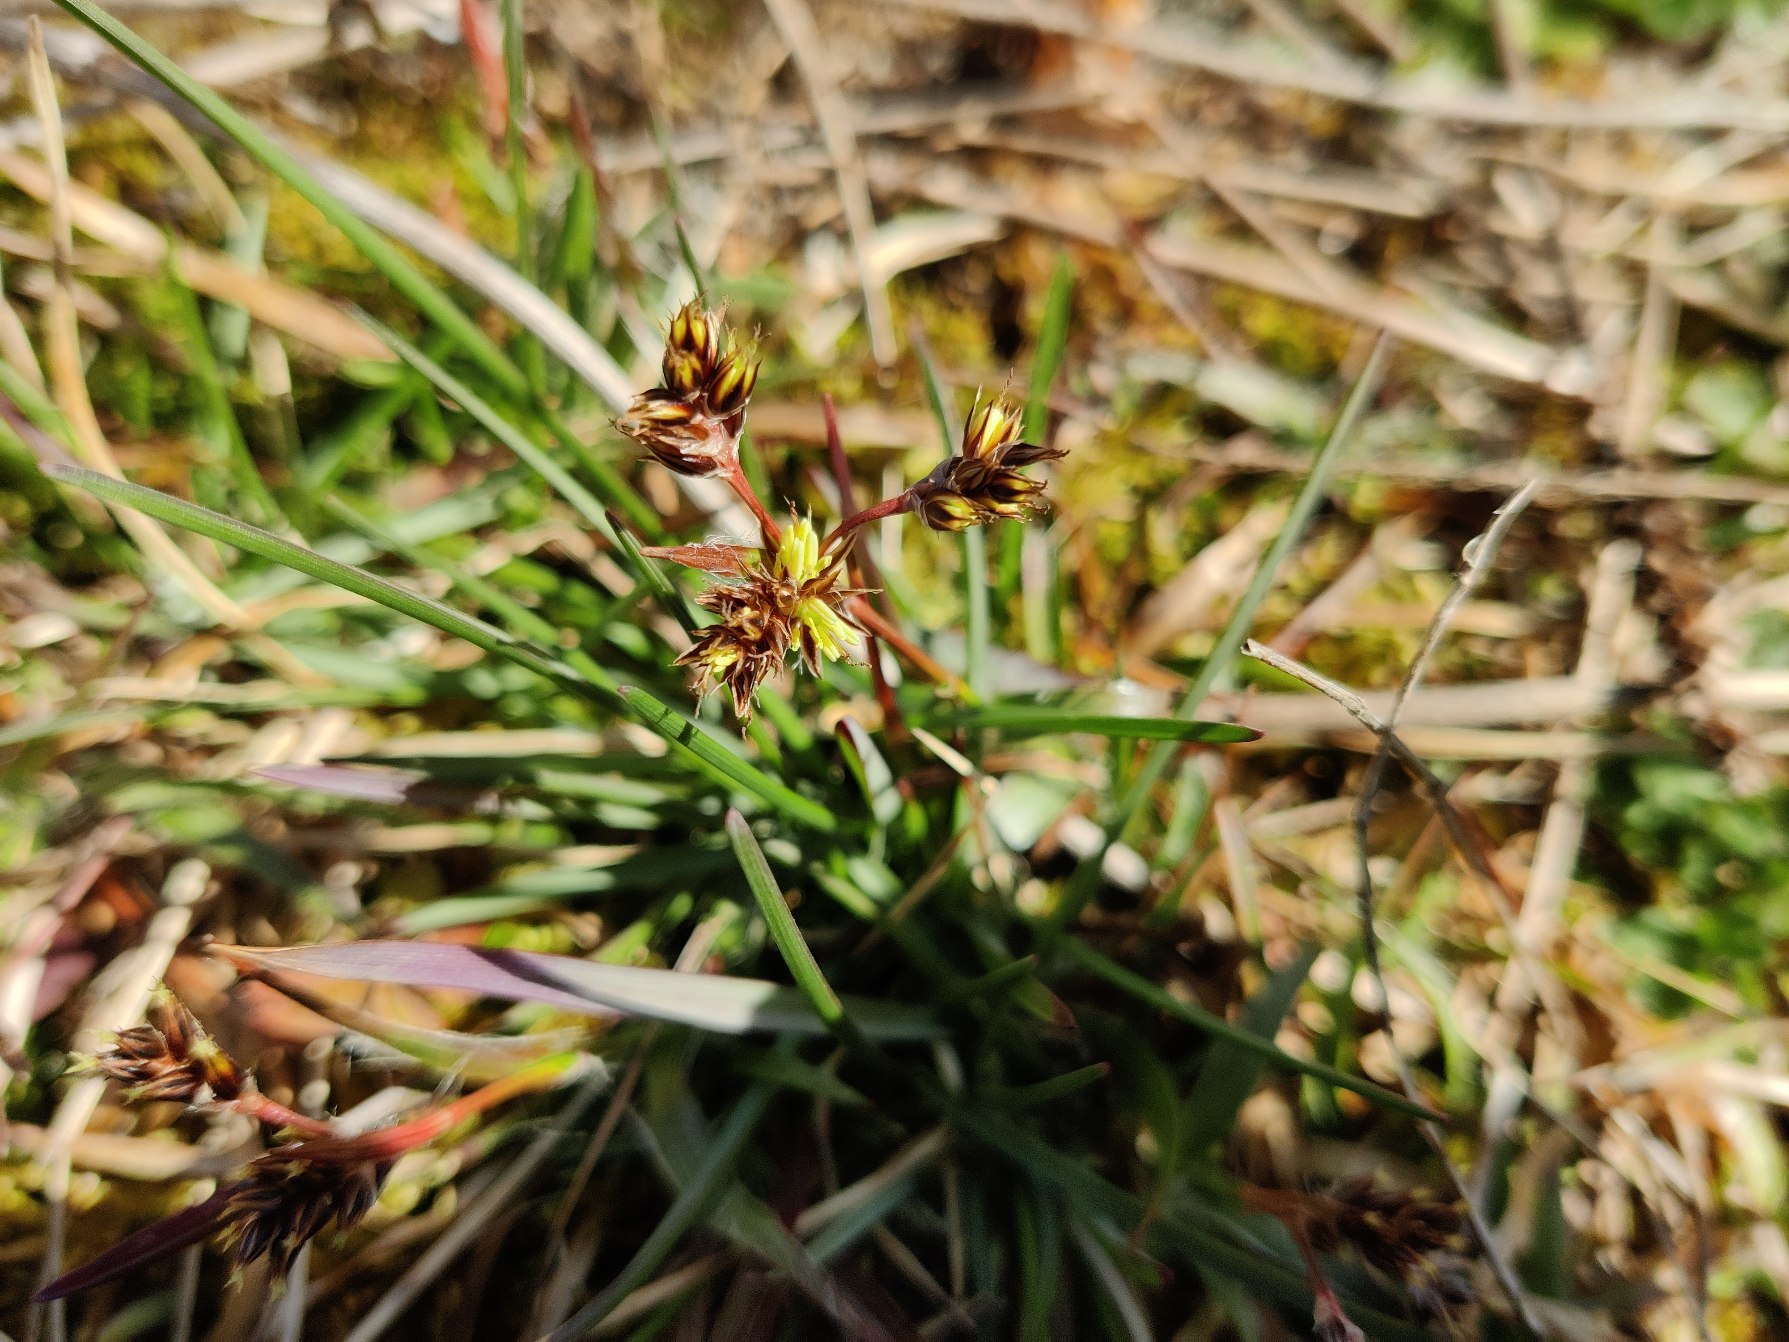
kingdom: Plantae
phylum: Tracheophyta
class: Liliopsida
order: Poales
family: Juncaceae
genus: Luzula
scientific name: Luzula campestris
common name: Mark-frytle
